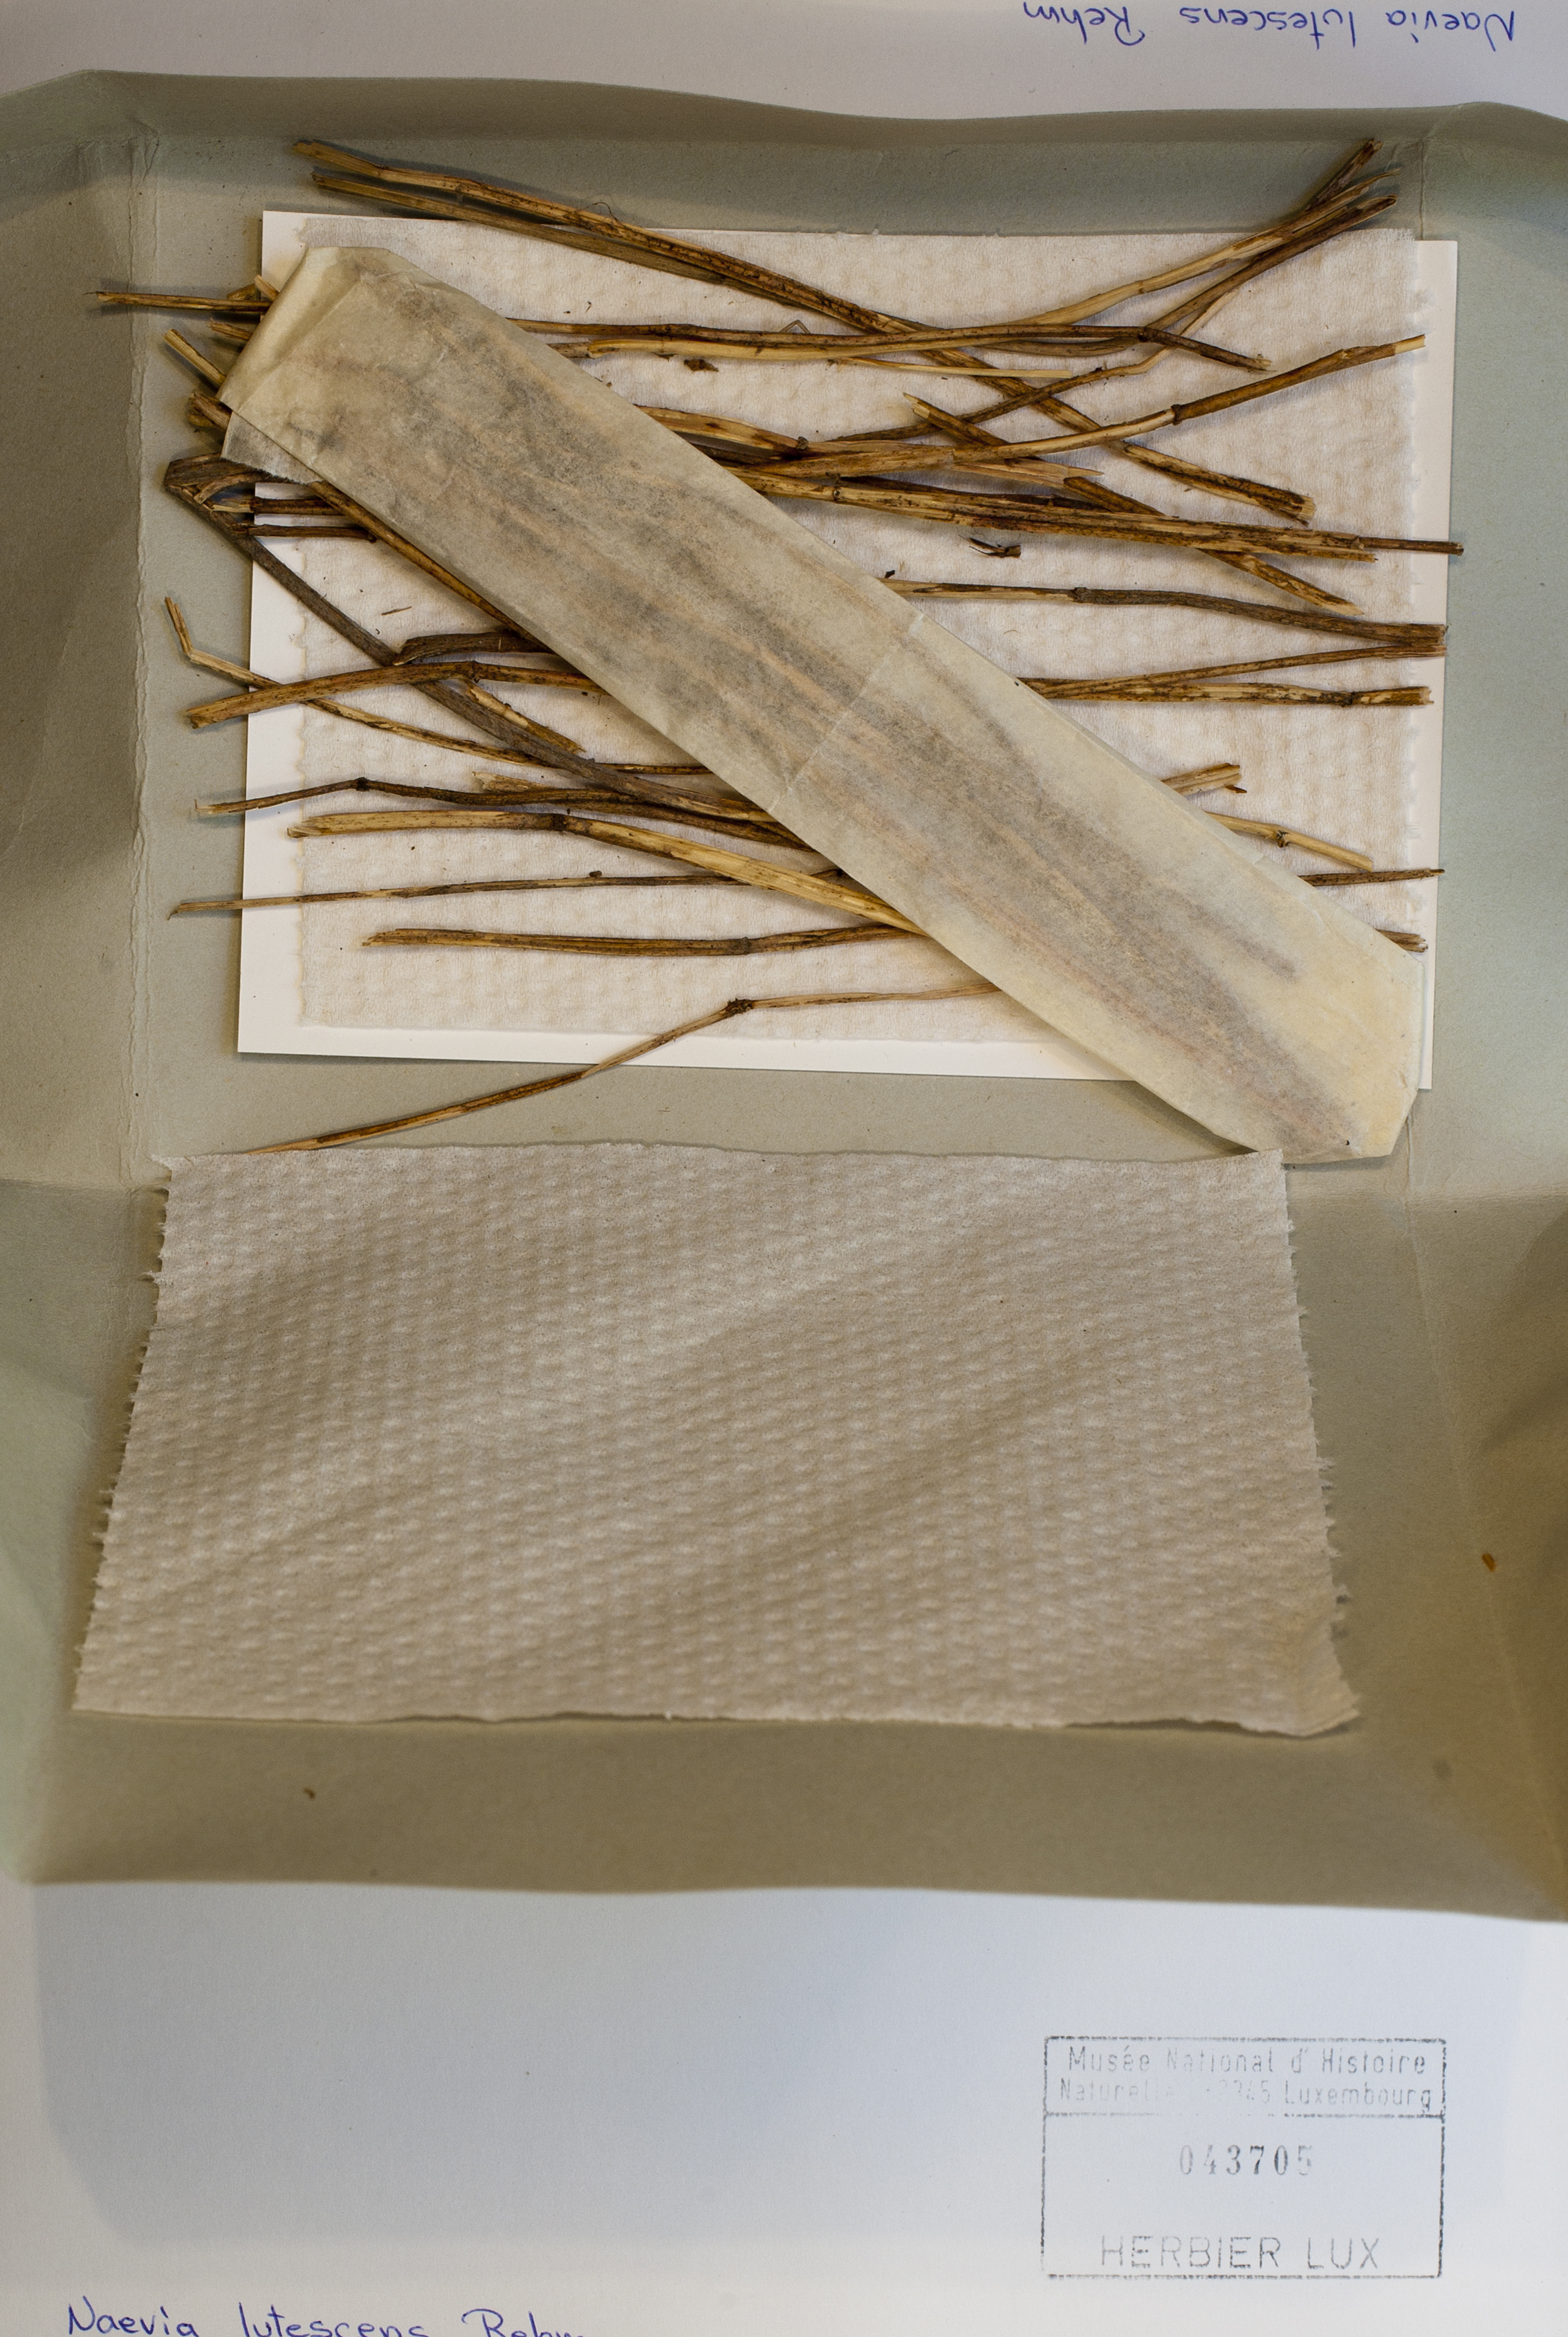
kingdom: Fungi
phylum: Ascomycota
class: Leotiomycetes
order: Helotiales
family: Dermateaceae
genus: Naevia
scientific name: Naevia lutescens
